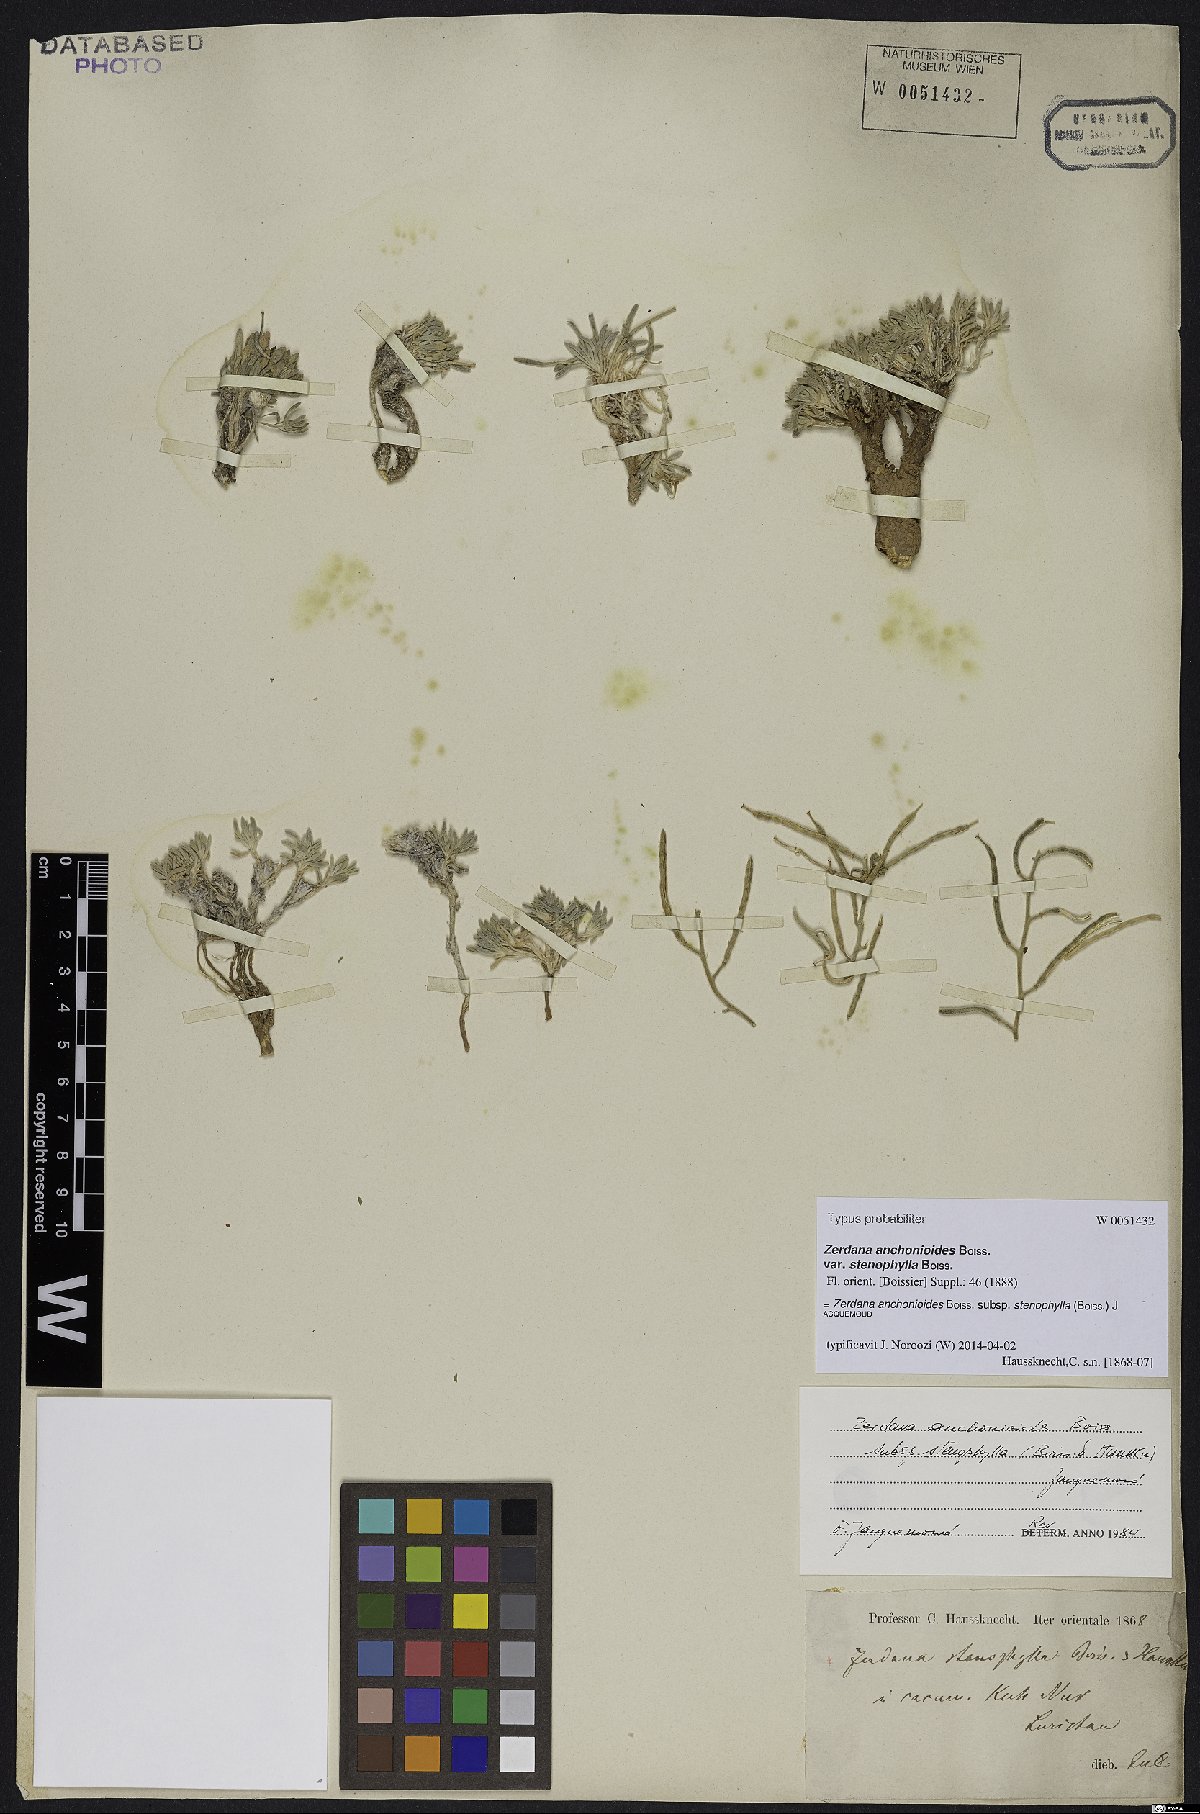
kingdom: Plantae
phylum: Tracheophyta
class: Magnoliopsida
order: Brassicales
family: Brassicaceae
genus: Zerdana
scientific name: Zerdana anchonioides
